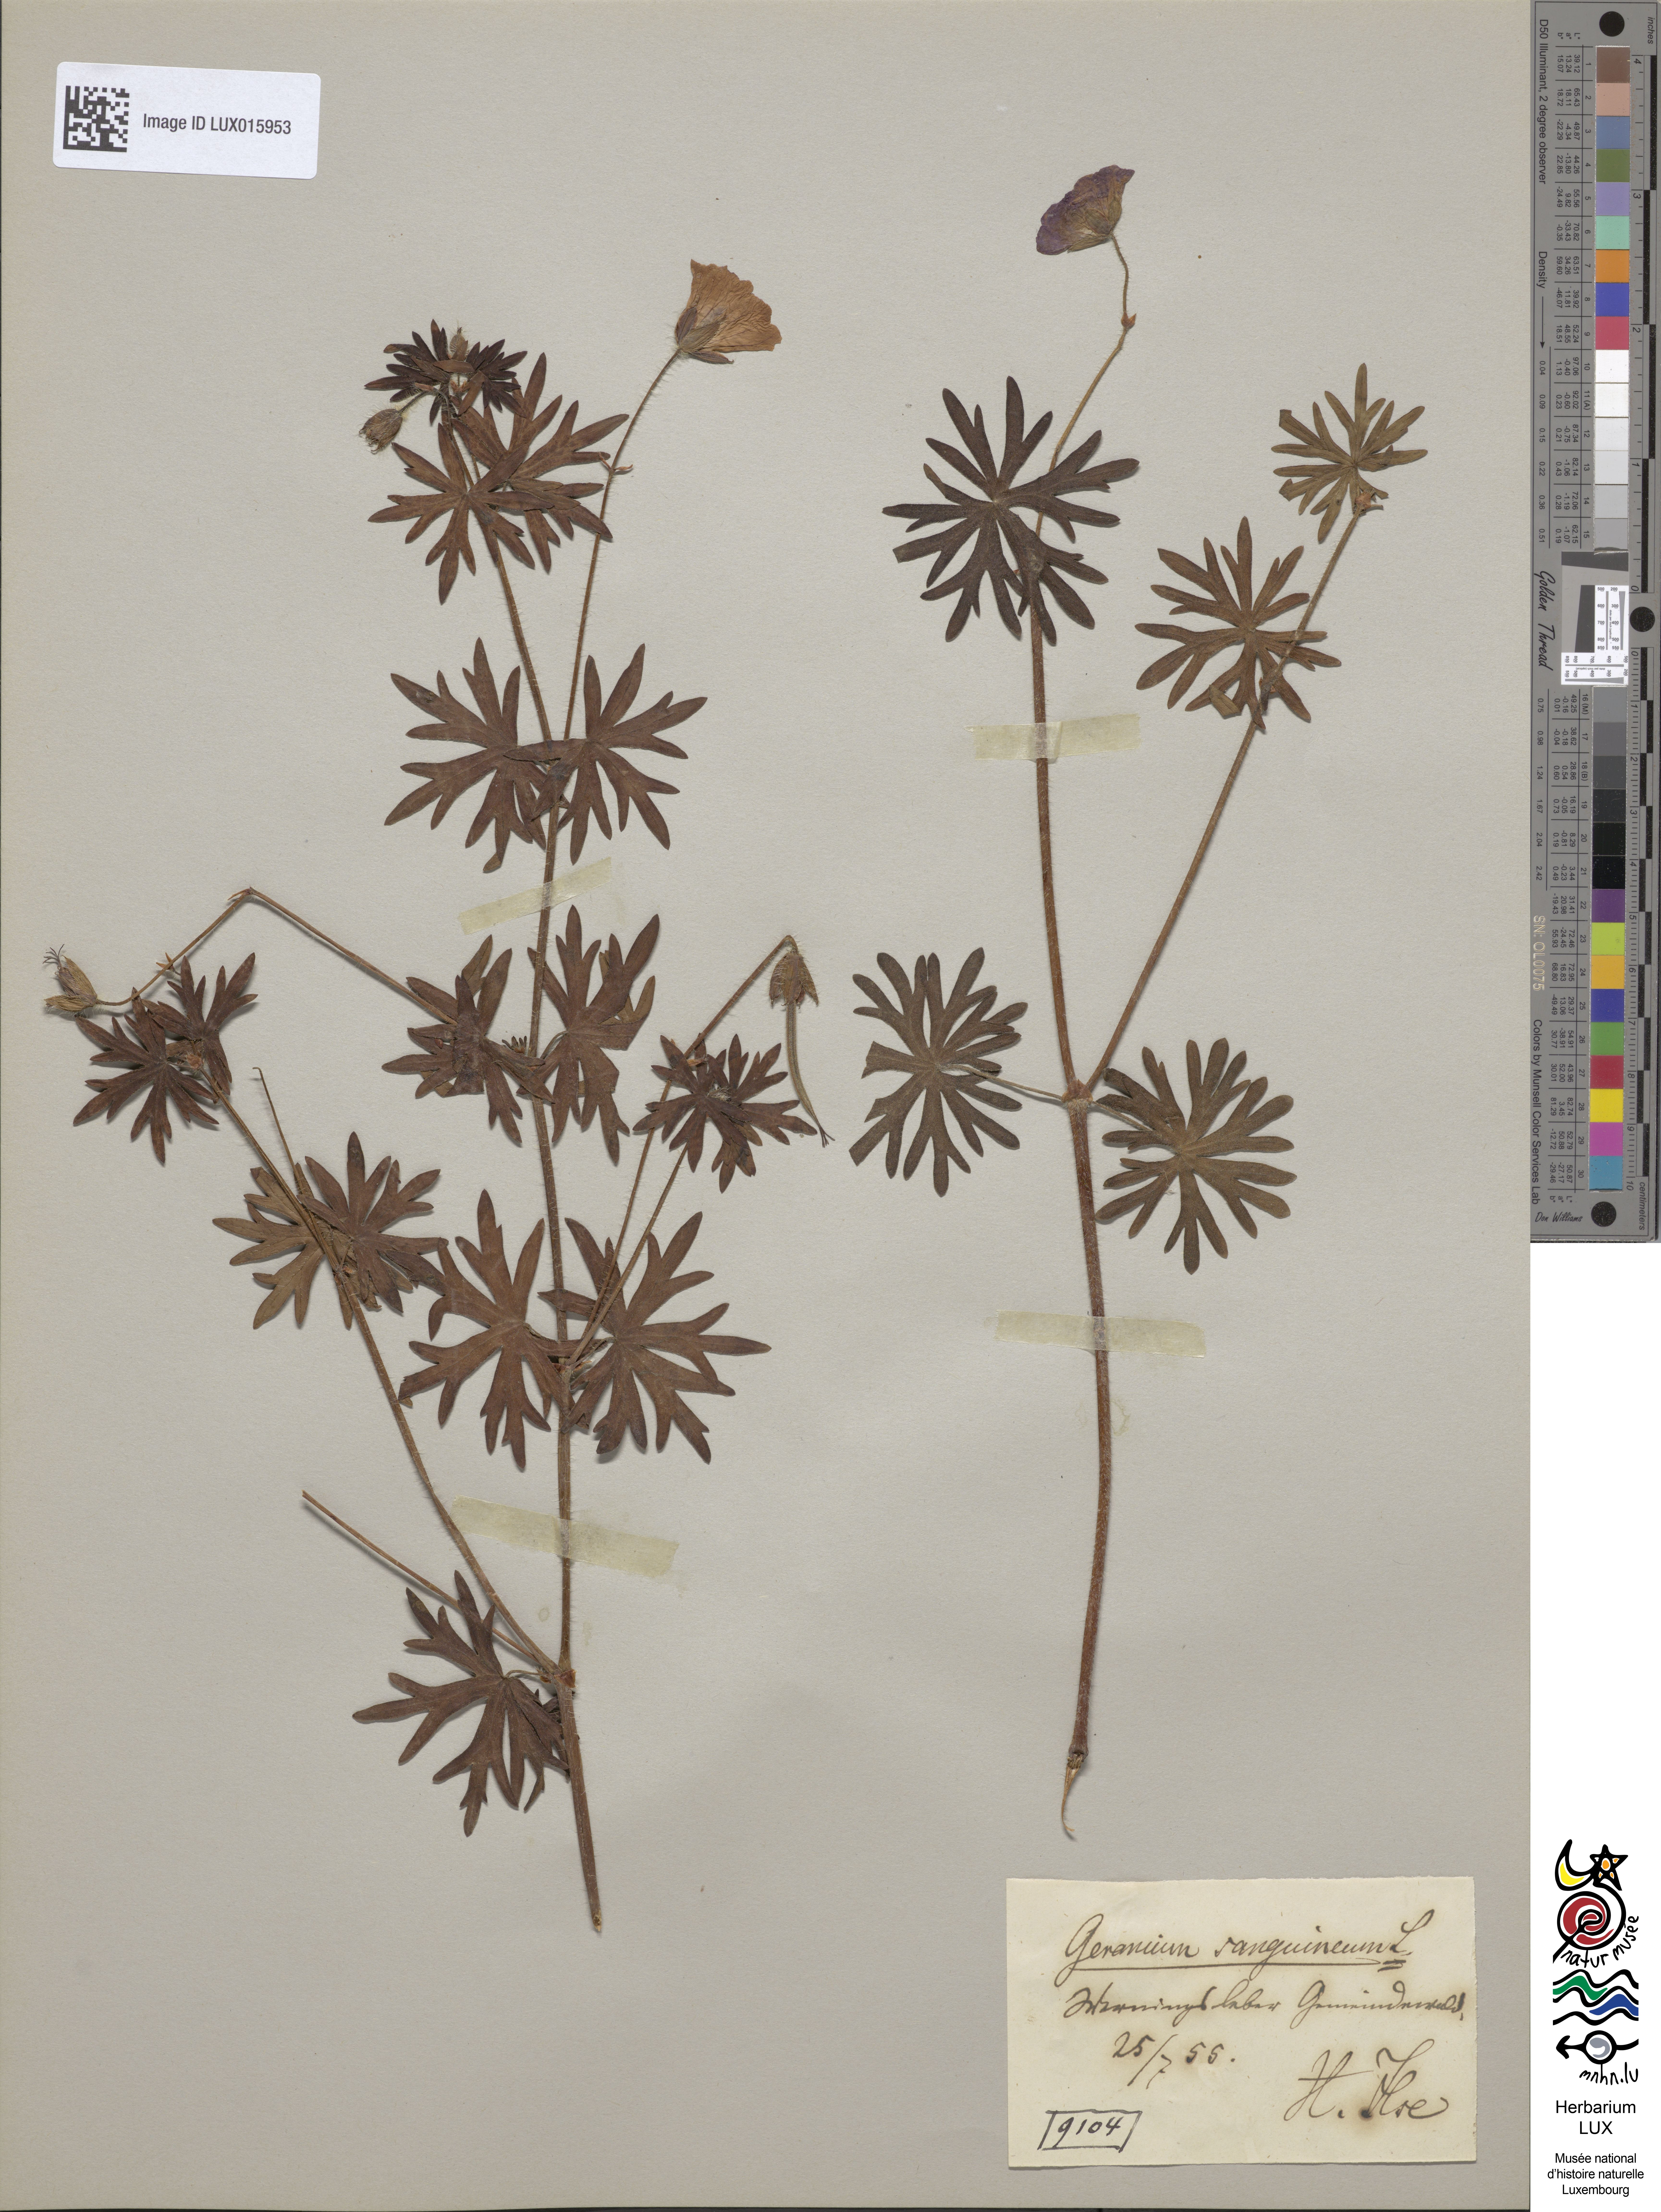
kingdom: Plantae
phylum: Tracheophyta
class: Magnoliopsida
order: Geraniales
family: Geraniaceae
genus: Geranium
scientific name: Geranium sanguineum
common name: Bloody crane's-bill
